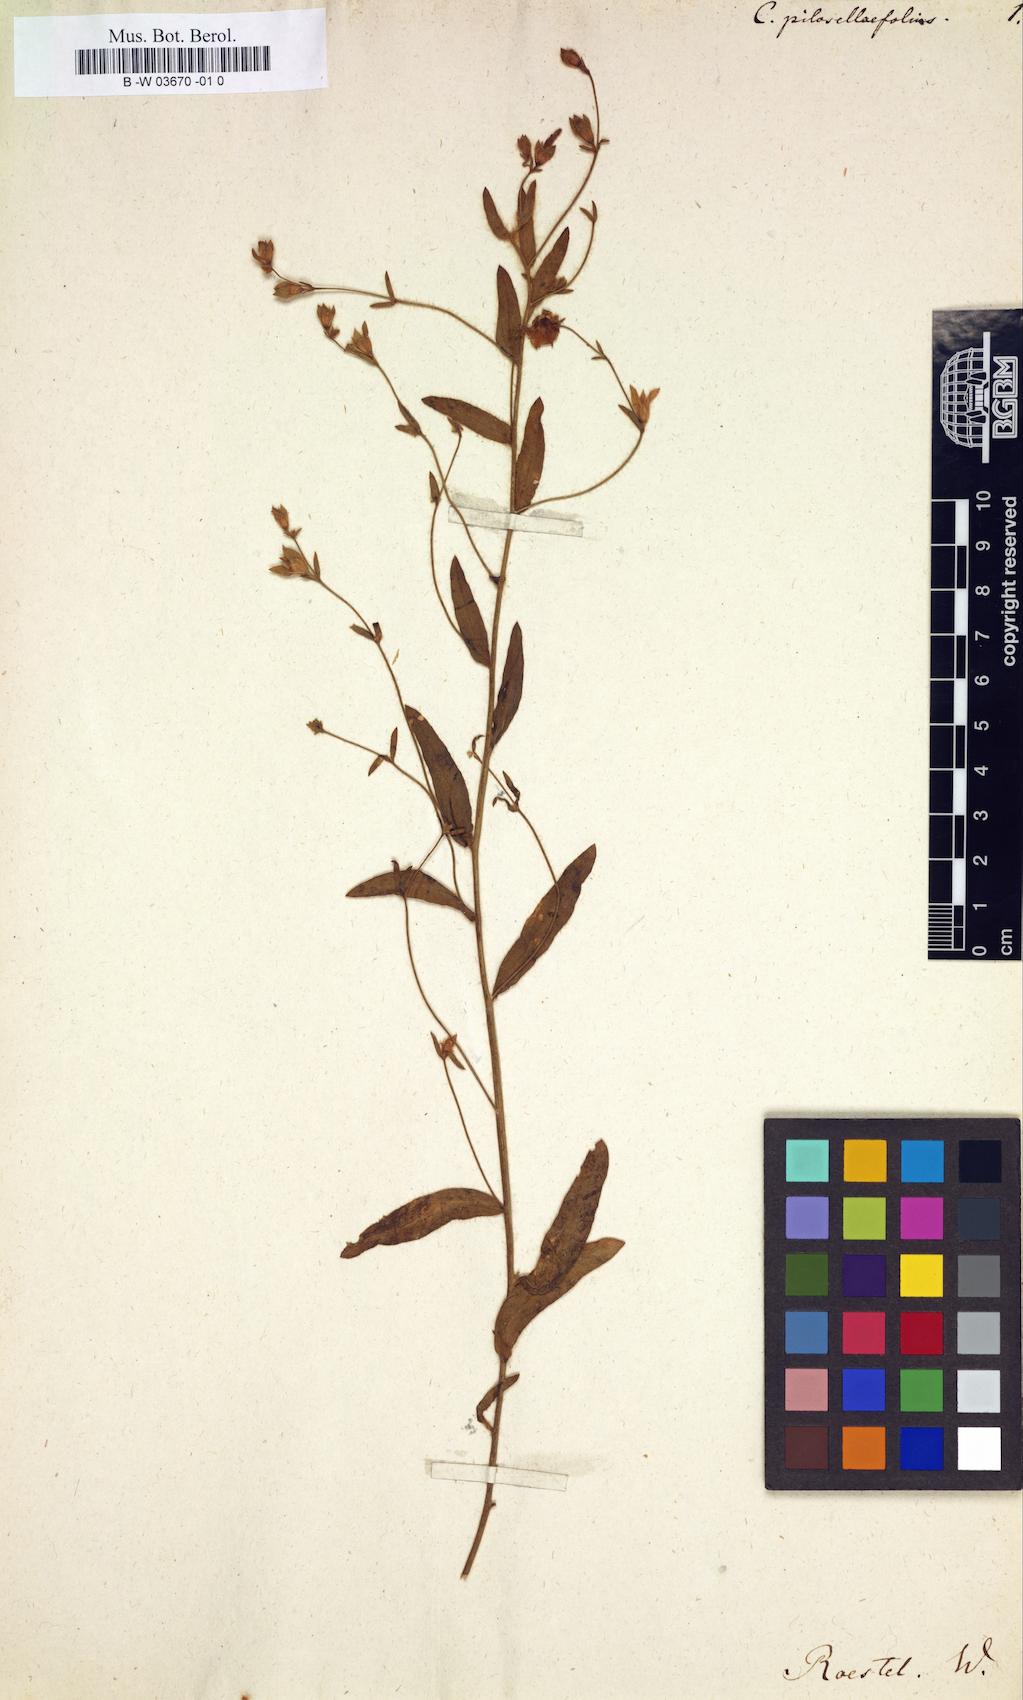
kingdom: Plantae
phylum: Tracheophyta
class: Magnoliopsida
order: Solanales
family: Convolvulaceae
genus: Convolvulus
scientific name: Convolvulus pilosellifolius
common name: Soft bindweed
